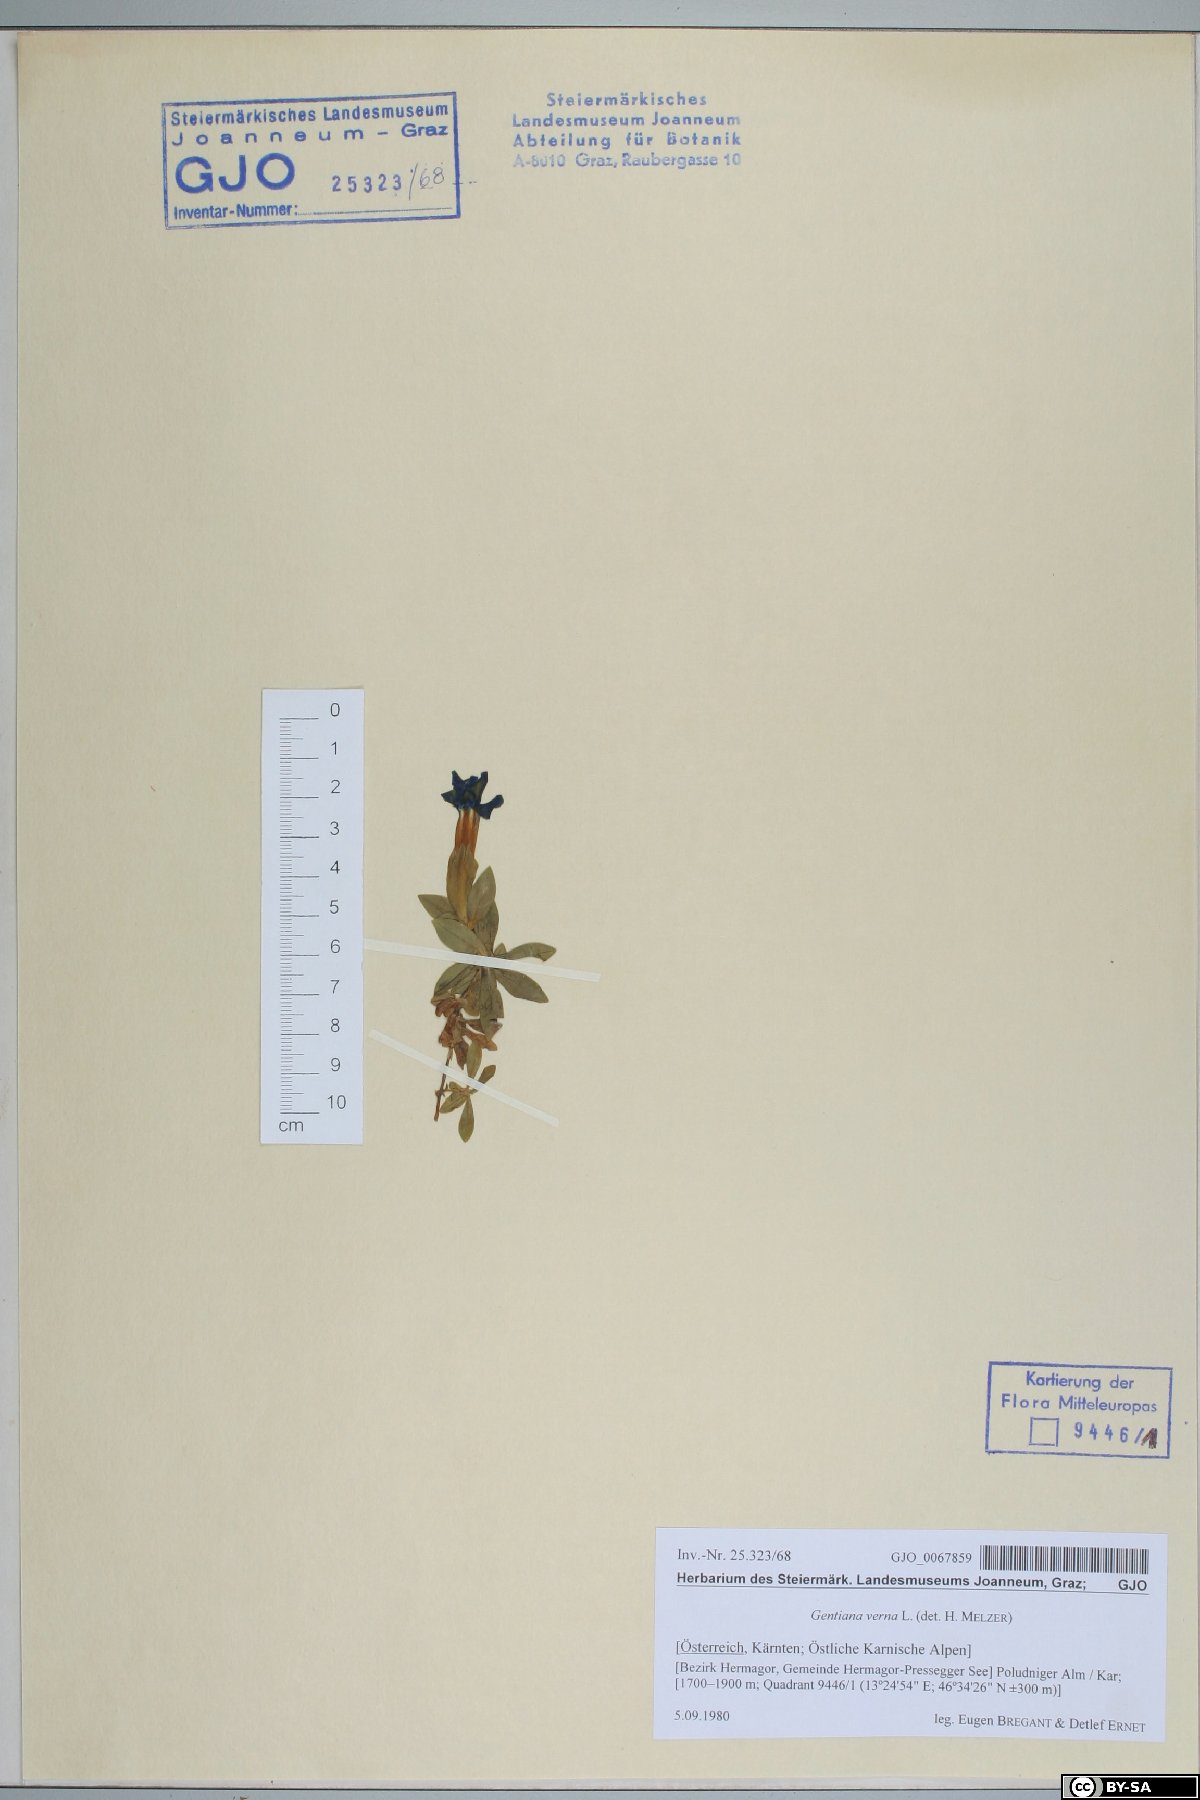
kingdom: Plantae
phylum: Tracheophyta
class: Magnoliopsida
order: Gentianales
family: Gentianaceae
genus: Gentiana
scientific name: Gentiana verna
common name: Spring gentian
